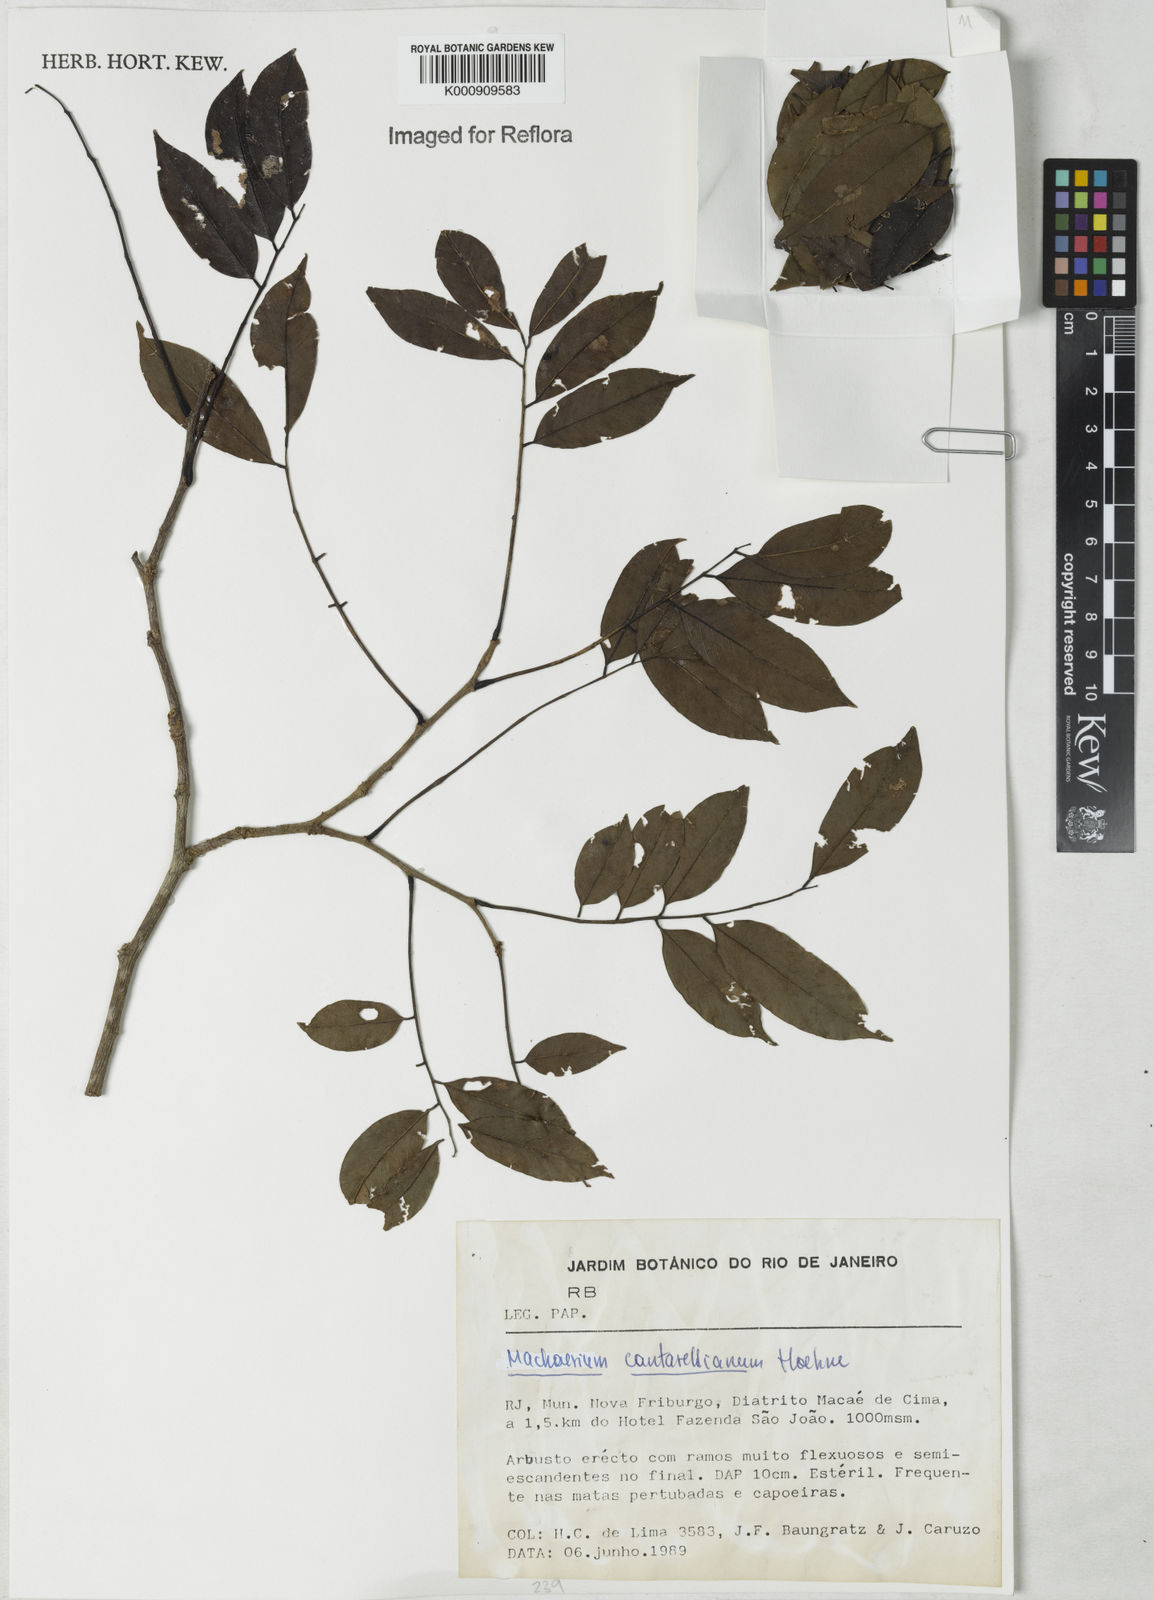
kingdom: Plantae
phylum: Tracheophyta
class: Magnoliopsida
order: Fabales
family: Fabaceae
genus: Machaerium
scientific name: Machaerium cantarellianum
